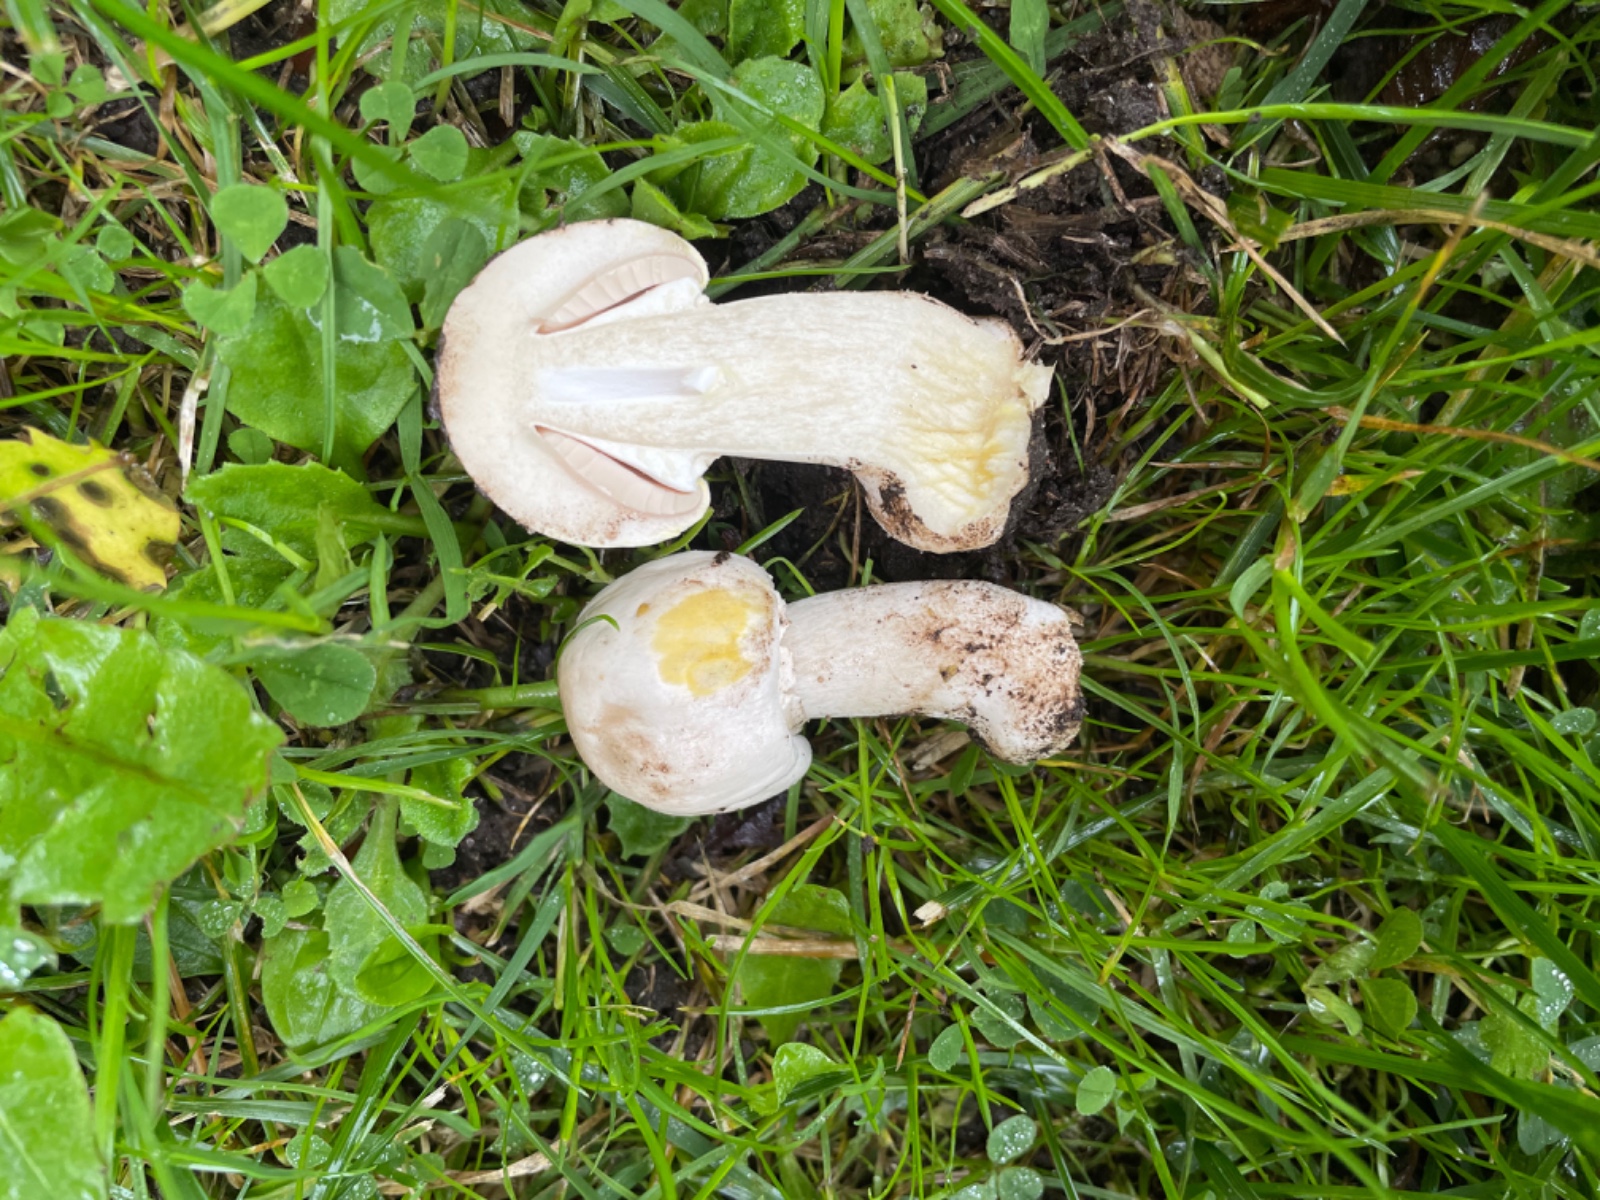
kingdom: Fungi
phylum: Basidiomycota
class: Agaricomycetes
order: Agaricales
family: Agaricaceae
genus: Agaricus
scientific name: Agaricus xanthodermus
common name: karbol-champignon
